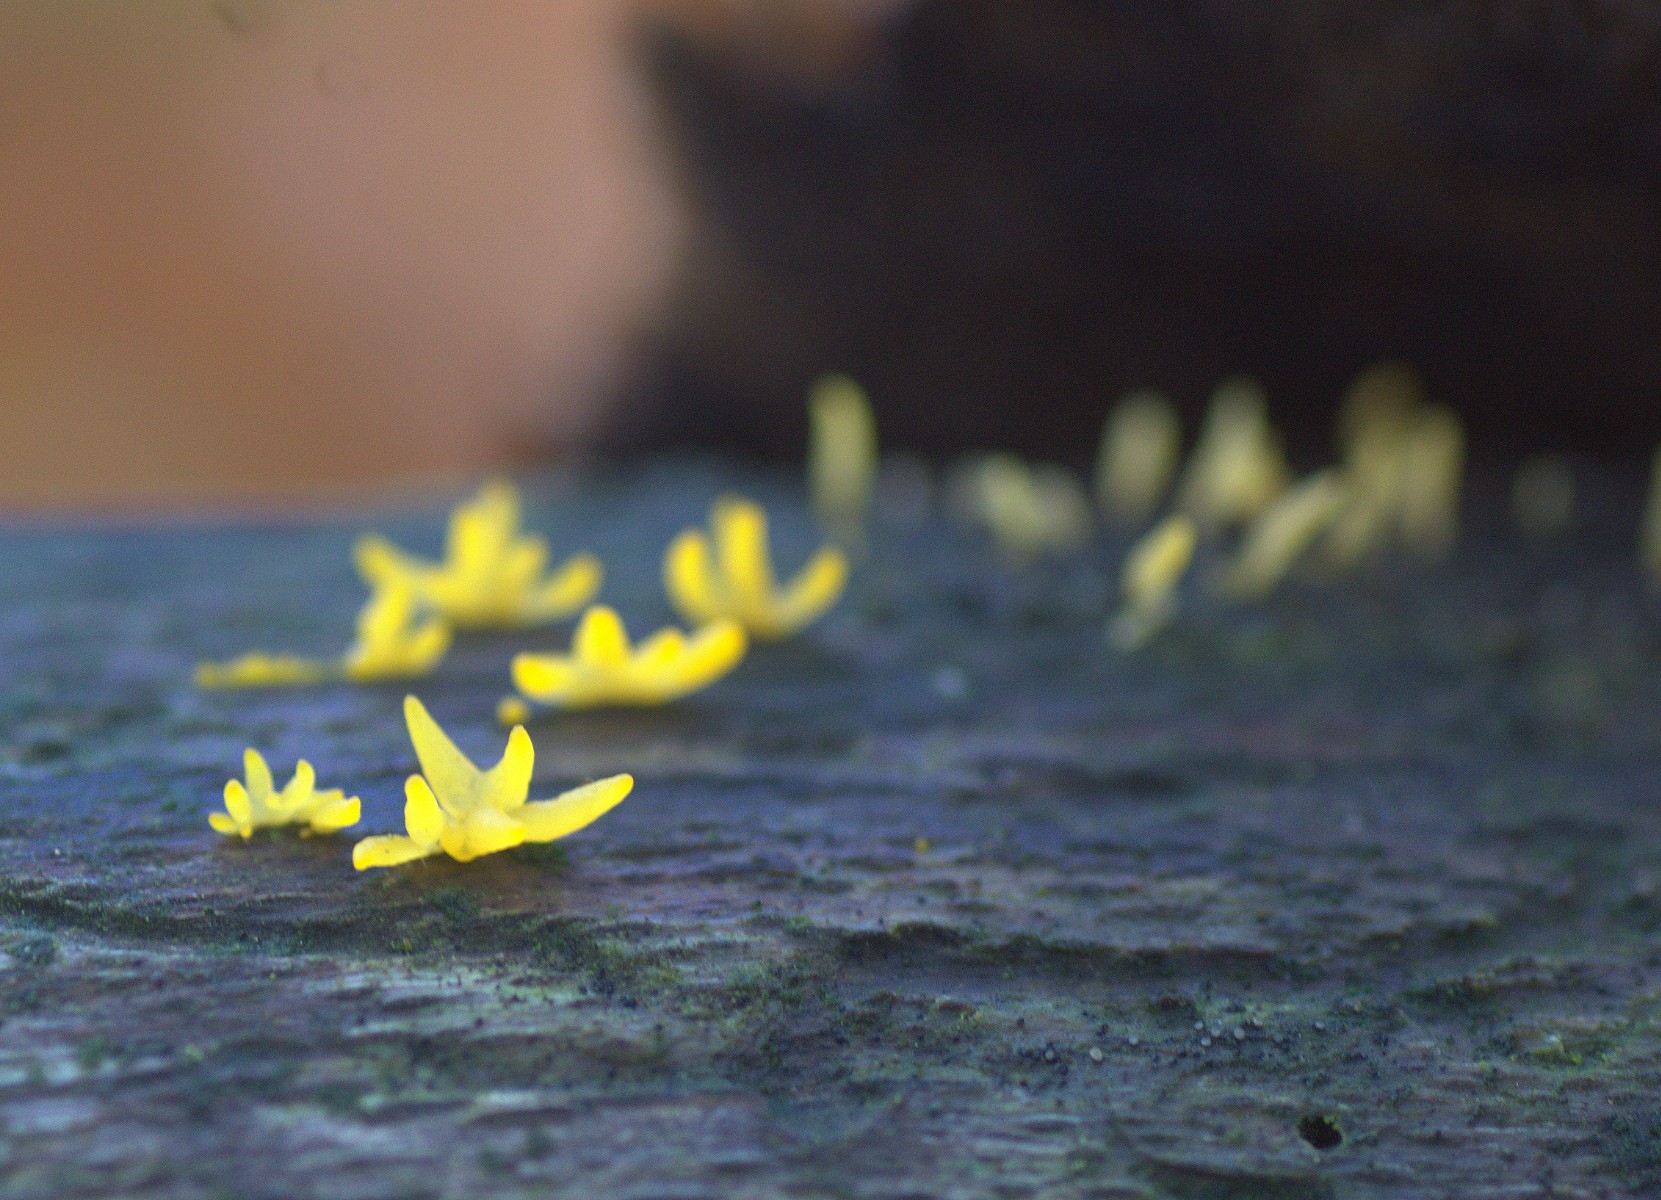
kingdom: Fungi
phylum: Basidiomycota
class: Dacrymycetes
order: Dacrymycetales
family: Dacrymycetaceae
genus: Calocera
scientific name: Calocera cornea
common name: liden guldgaffel
